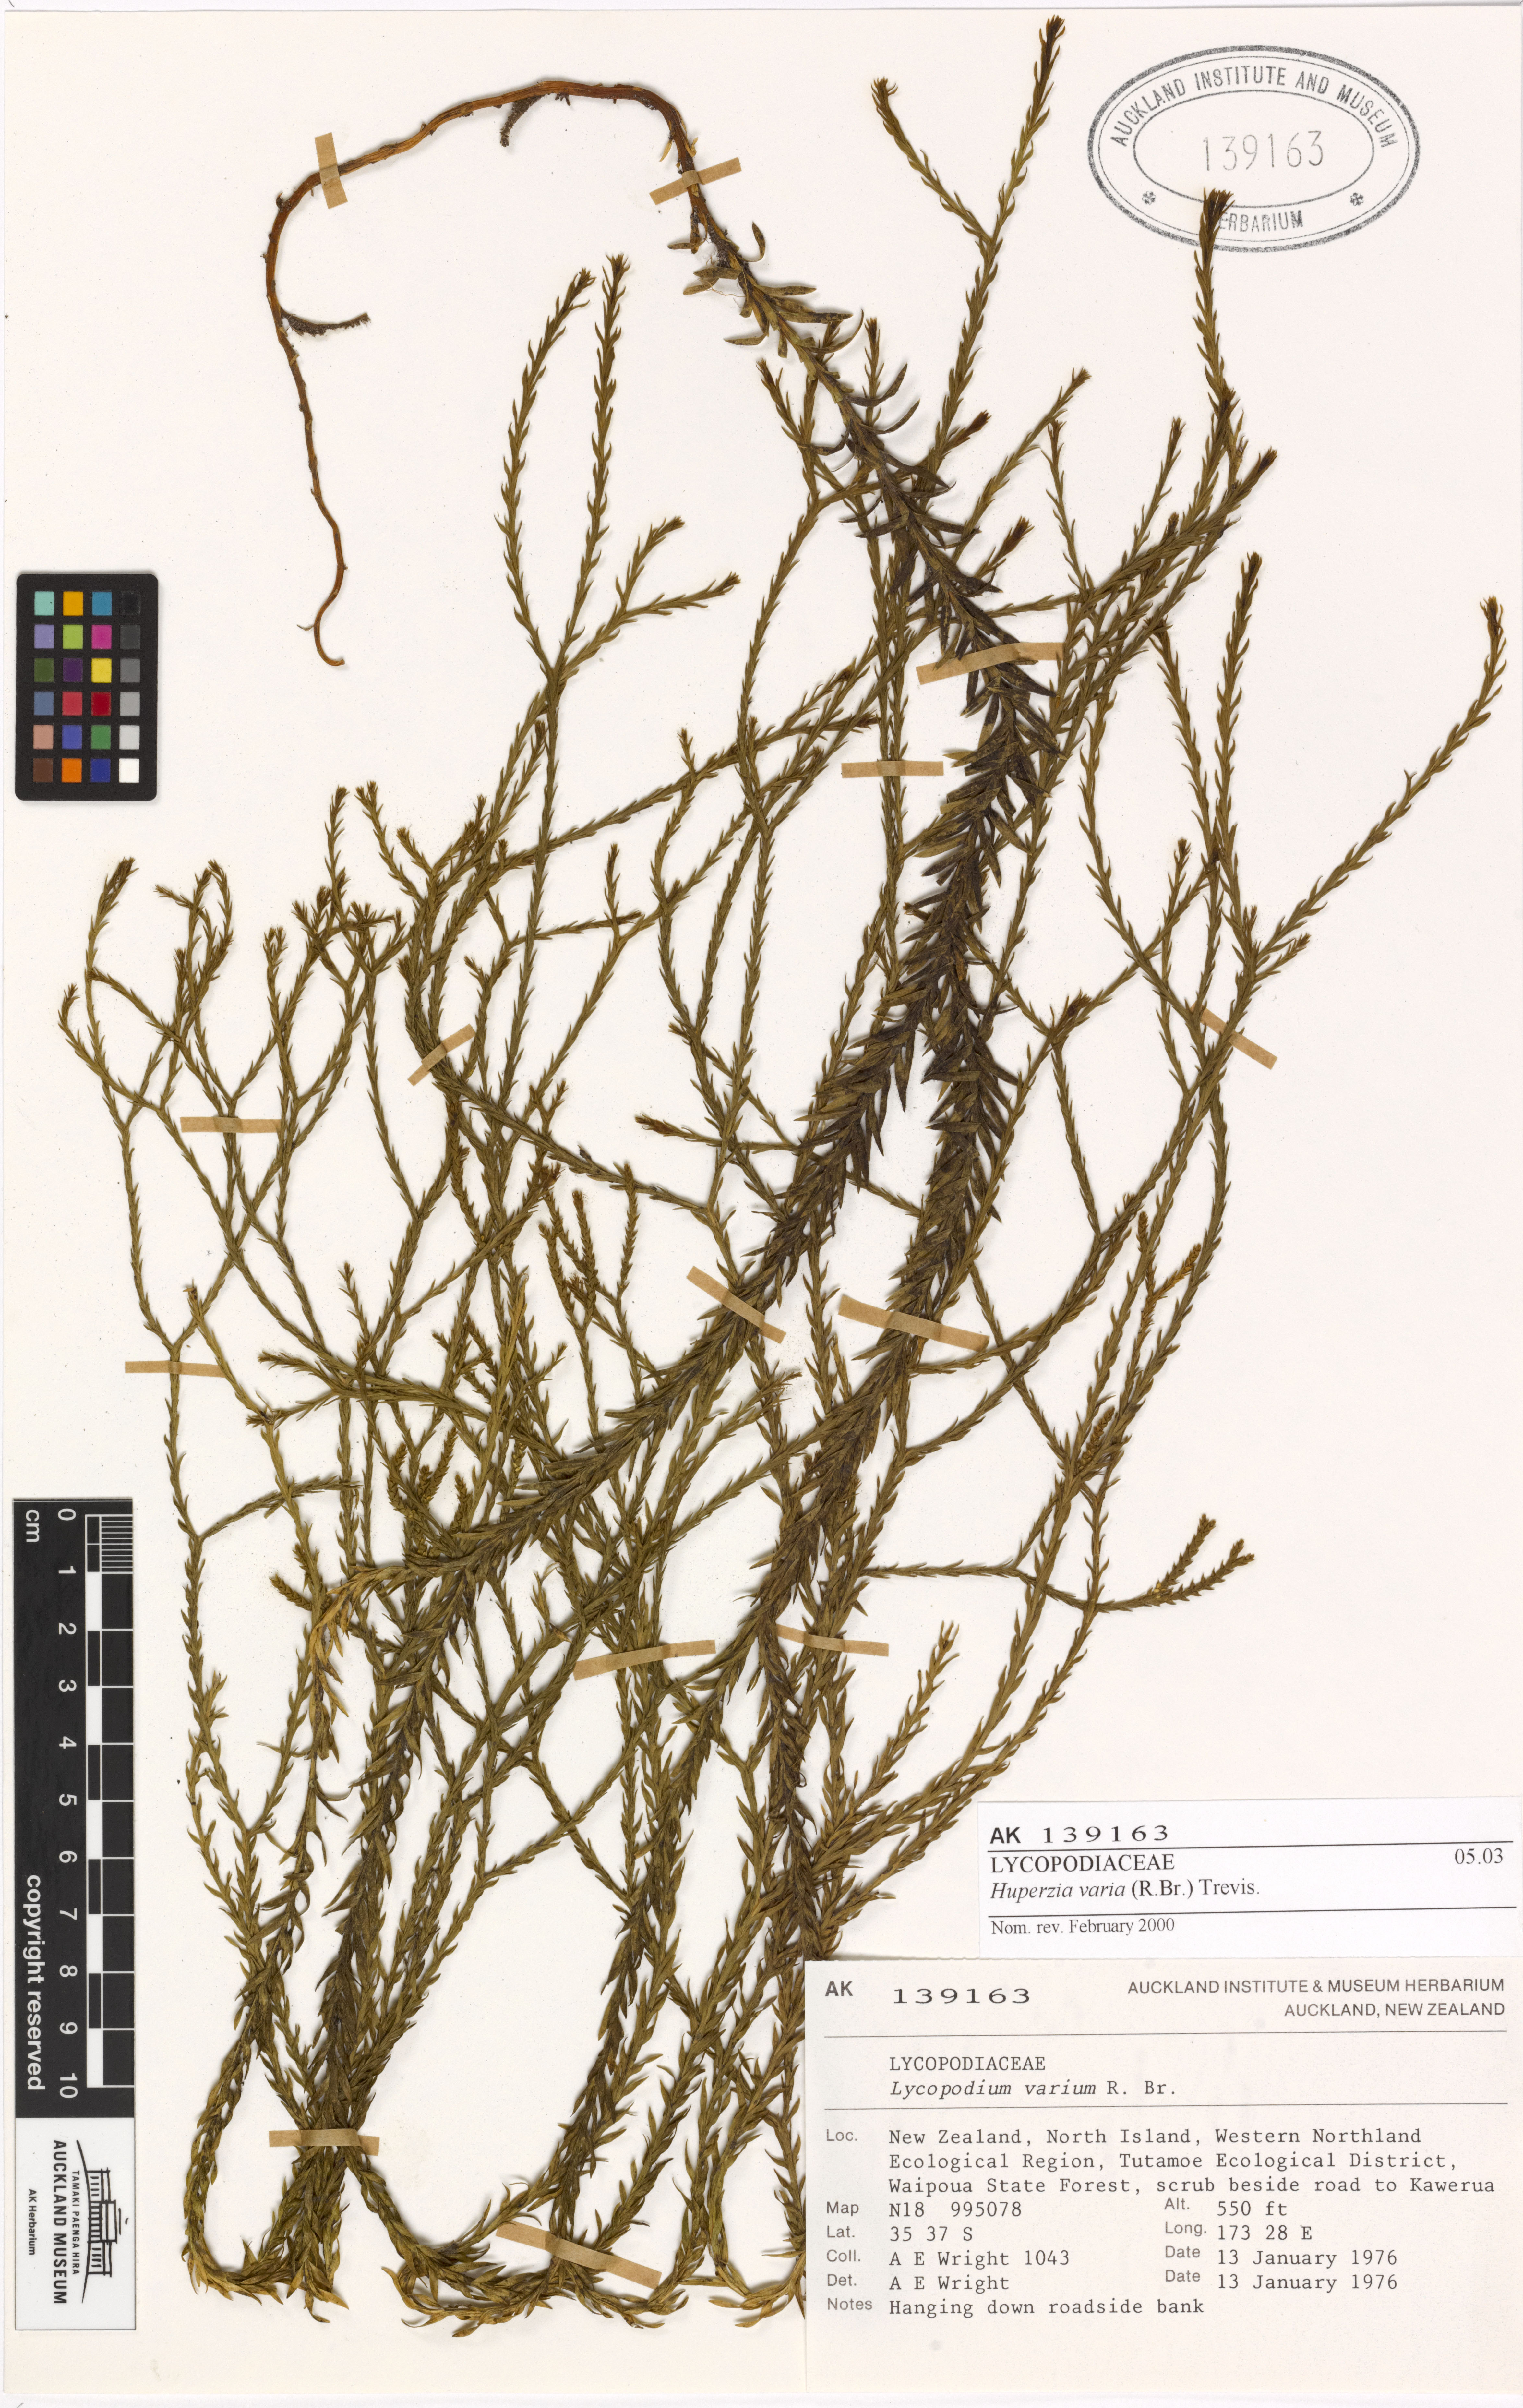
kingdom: Plantae
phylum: Tracheophyta
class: Lycopodiopsida
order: Lycopodiales
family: Lycopodiaceae
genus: Phlegmariurus
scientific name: Phlegmariurus billardierei
